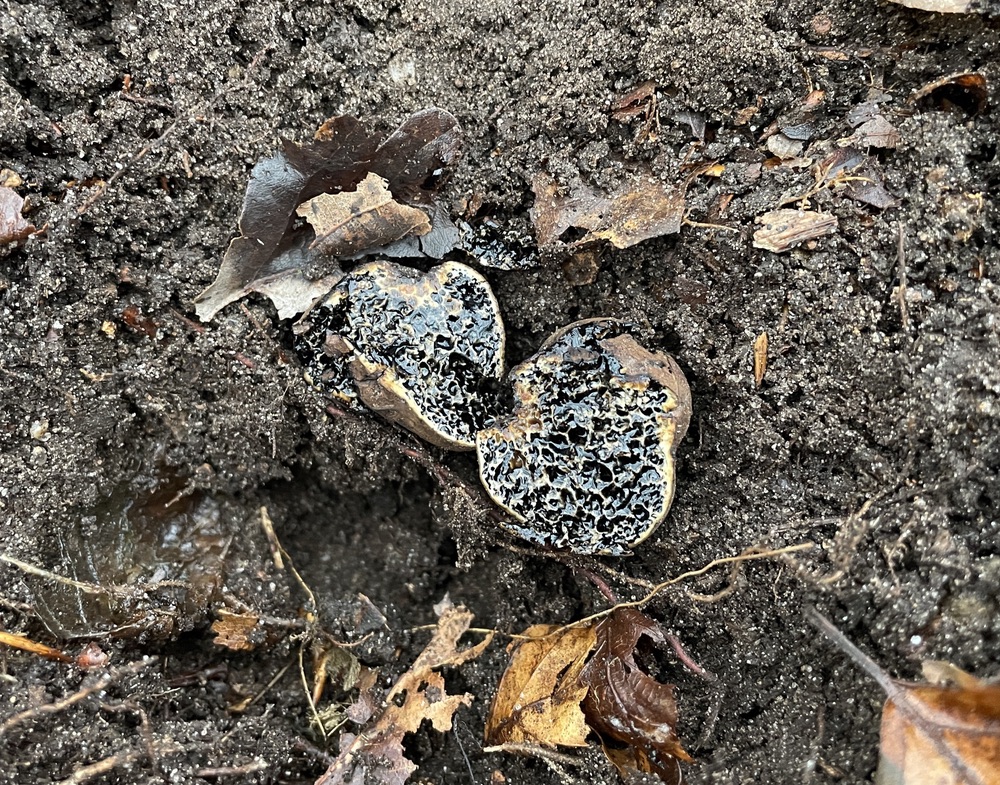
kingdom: Fungi
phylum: Basidiomycota
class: Agaricomycetes
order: Boletales
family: Paxillaceae
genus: Melanogaster
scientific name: Melanogaster ambiguus
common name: lille slimtrøffel
